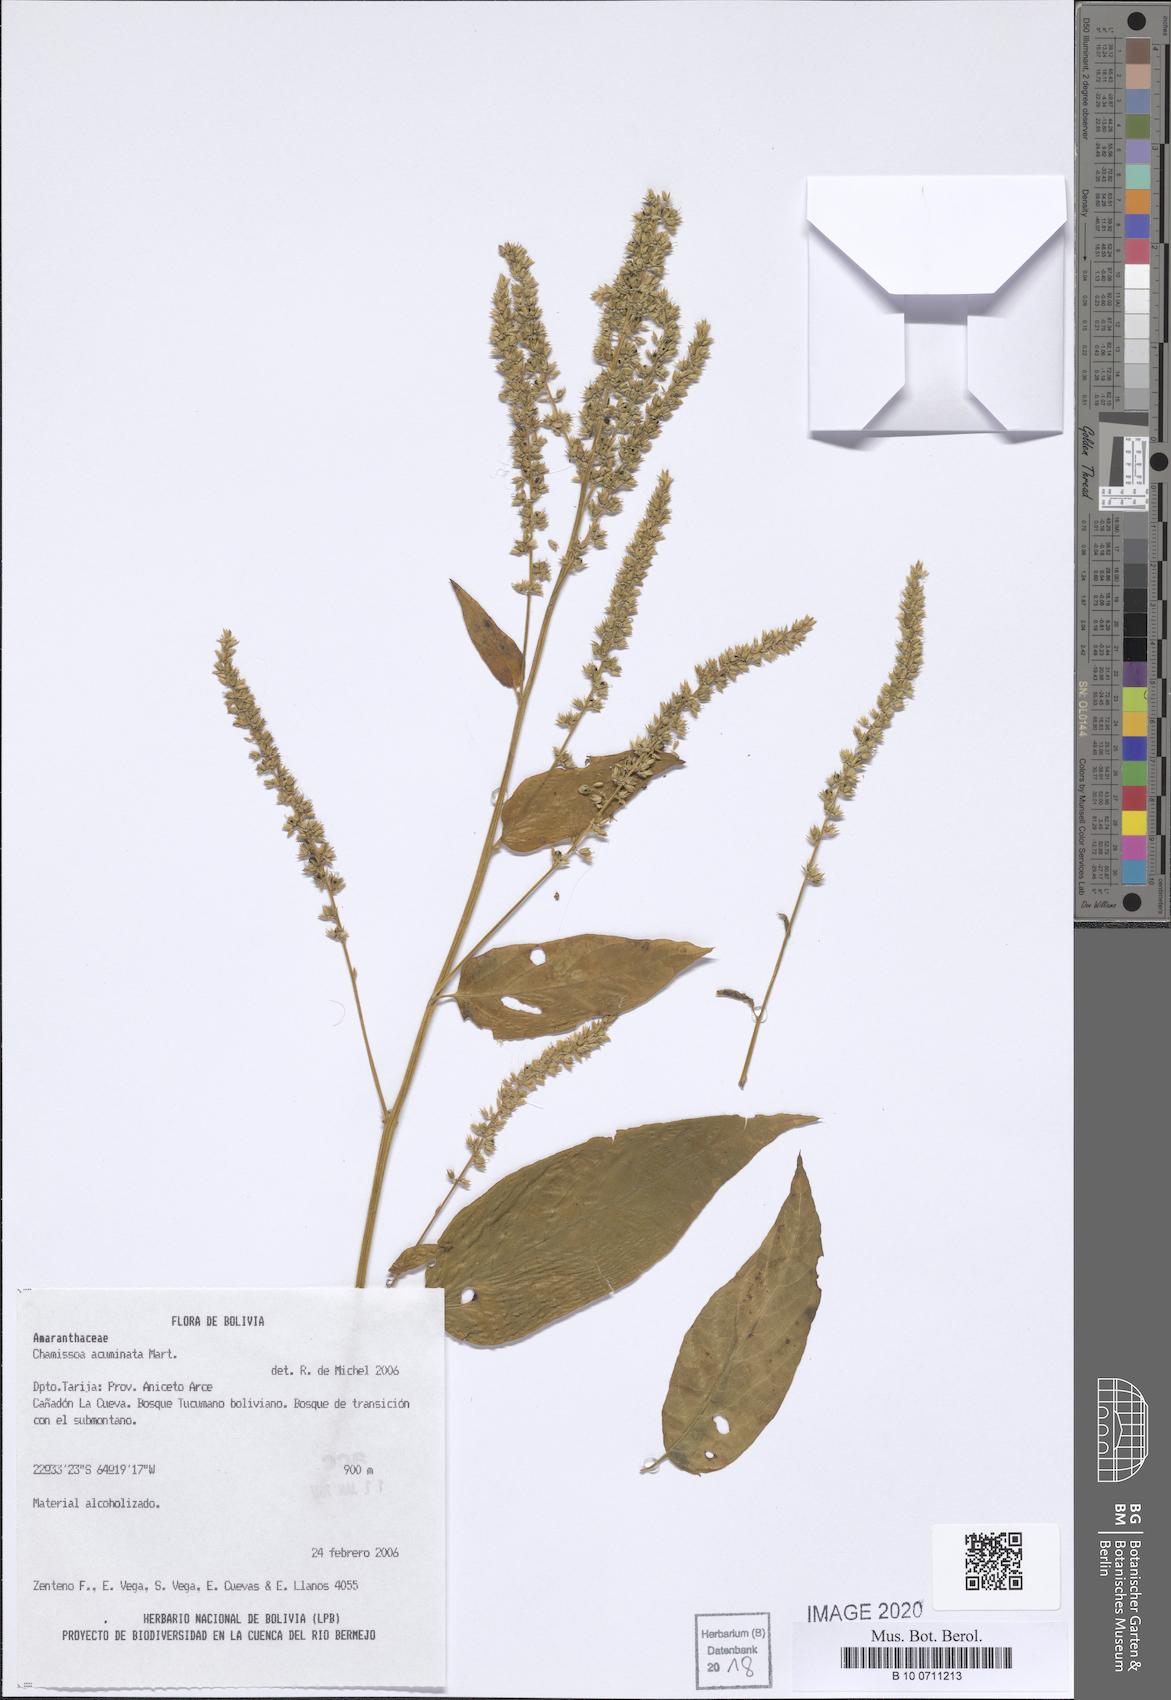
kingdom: Plantae
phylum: Tracheophyta
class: Magnoliopsida
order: Caryophyllales
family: Amaranthaceae
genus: Chamissoa
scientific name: Chamissoa acuminata
